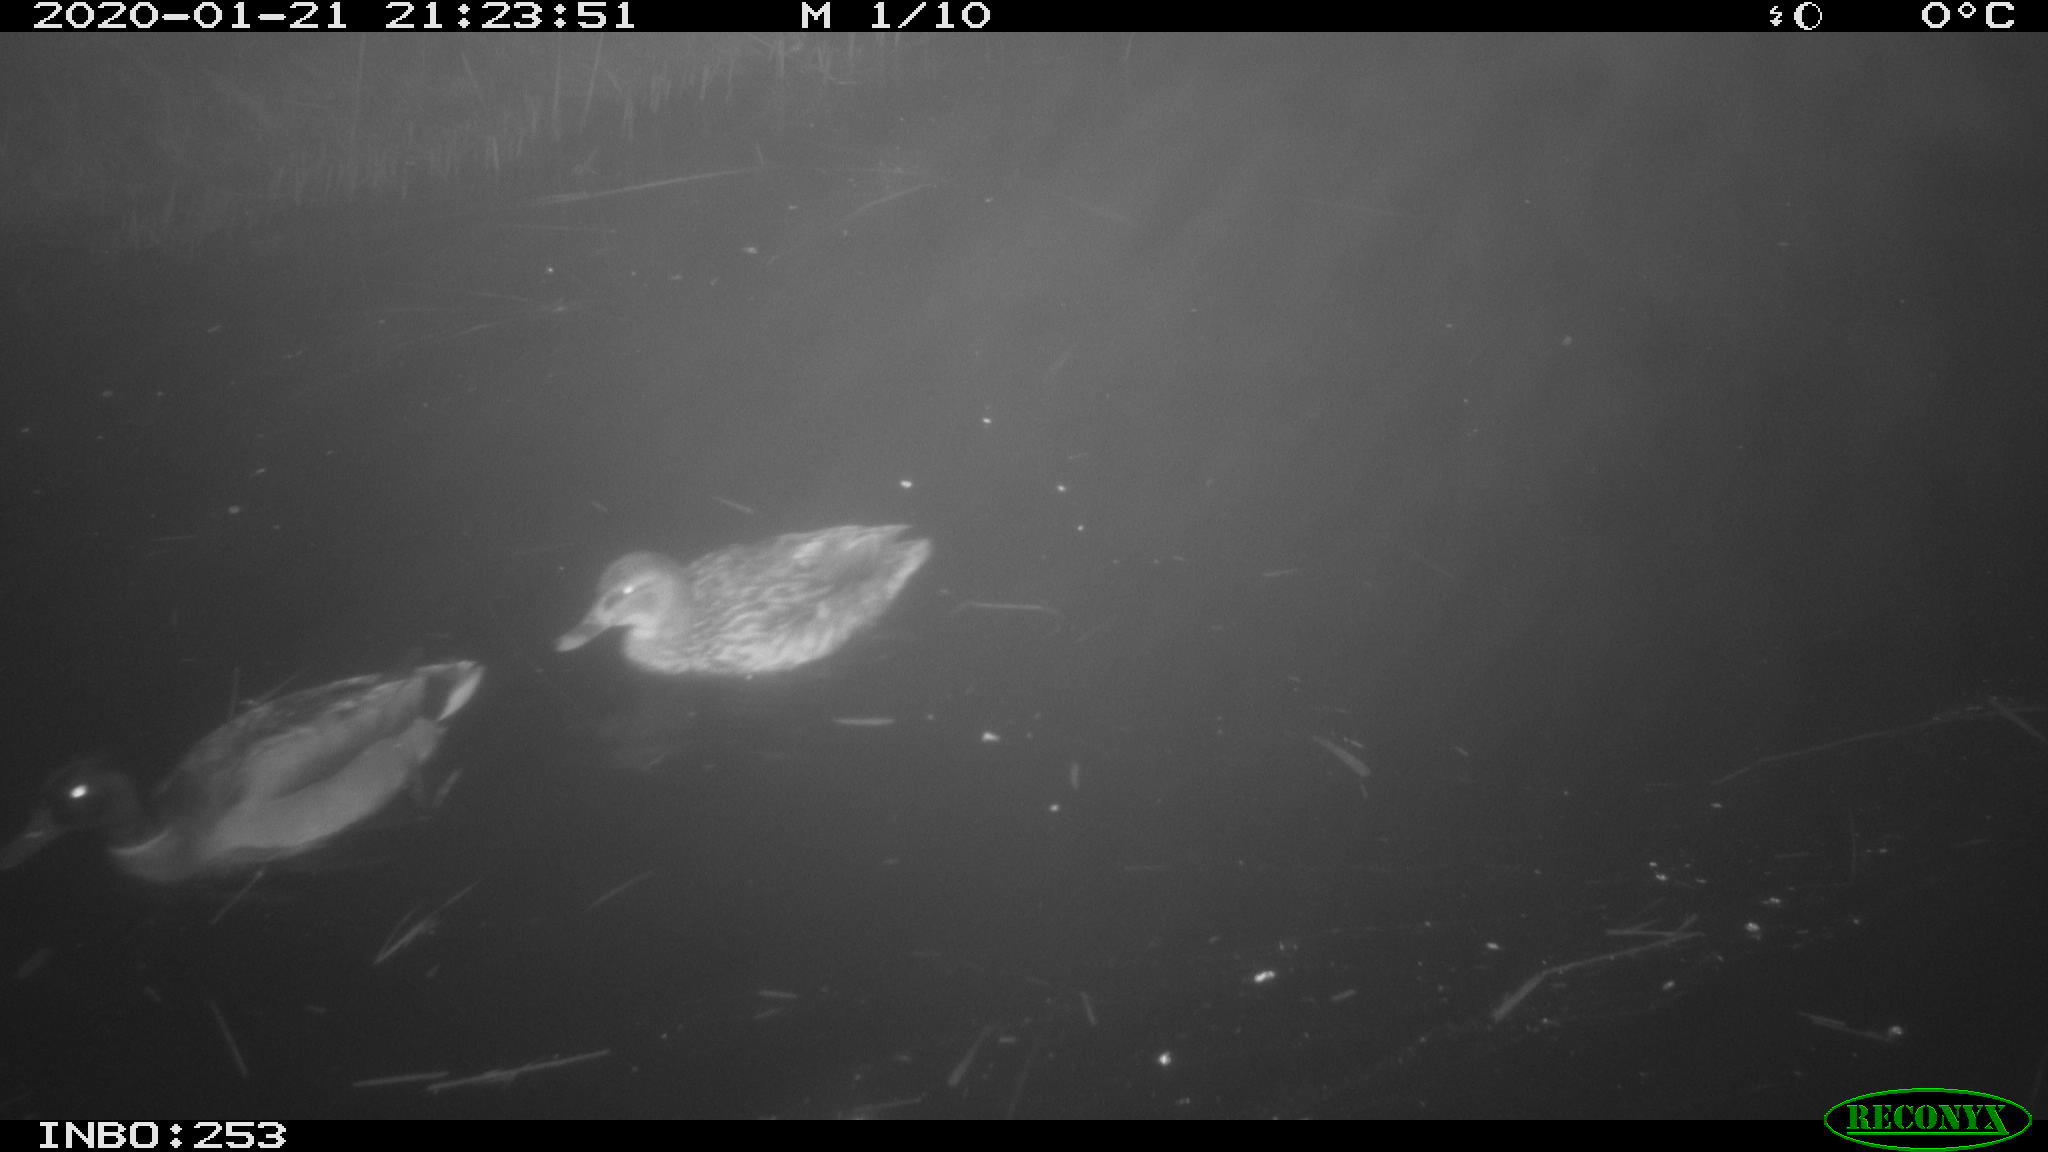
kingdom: Animalia
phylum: Chordata
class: Aves
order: Anseriformes
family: Anatidae
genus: Anas
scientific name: Anas platyrhynchos
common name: Mallard
